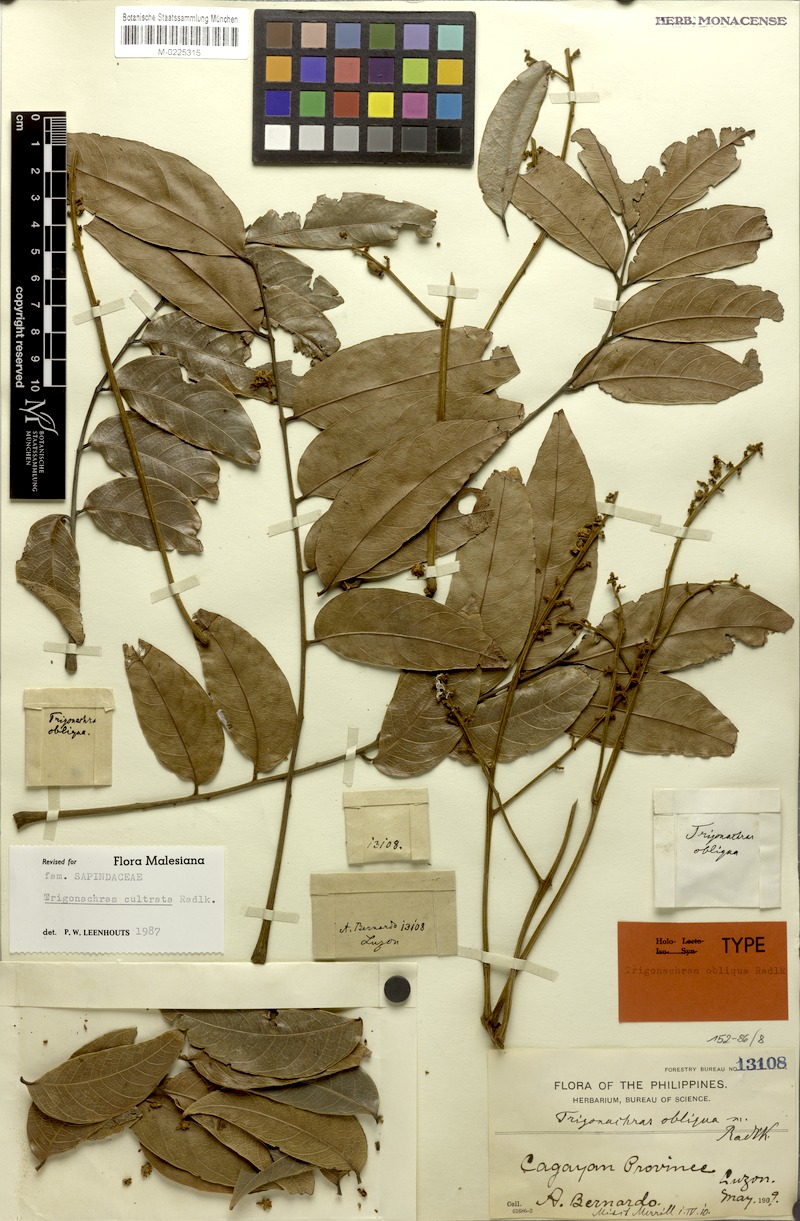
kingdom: Plantae
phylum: Tracheophyta
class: Magnoliopsida
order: Sapindales
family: Sapindaceae
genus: Trigonachras
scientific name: Trigonachras cultrata
